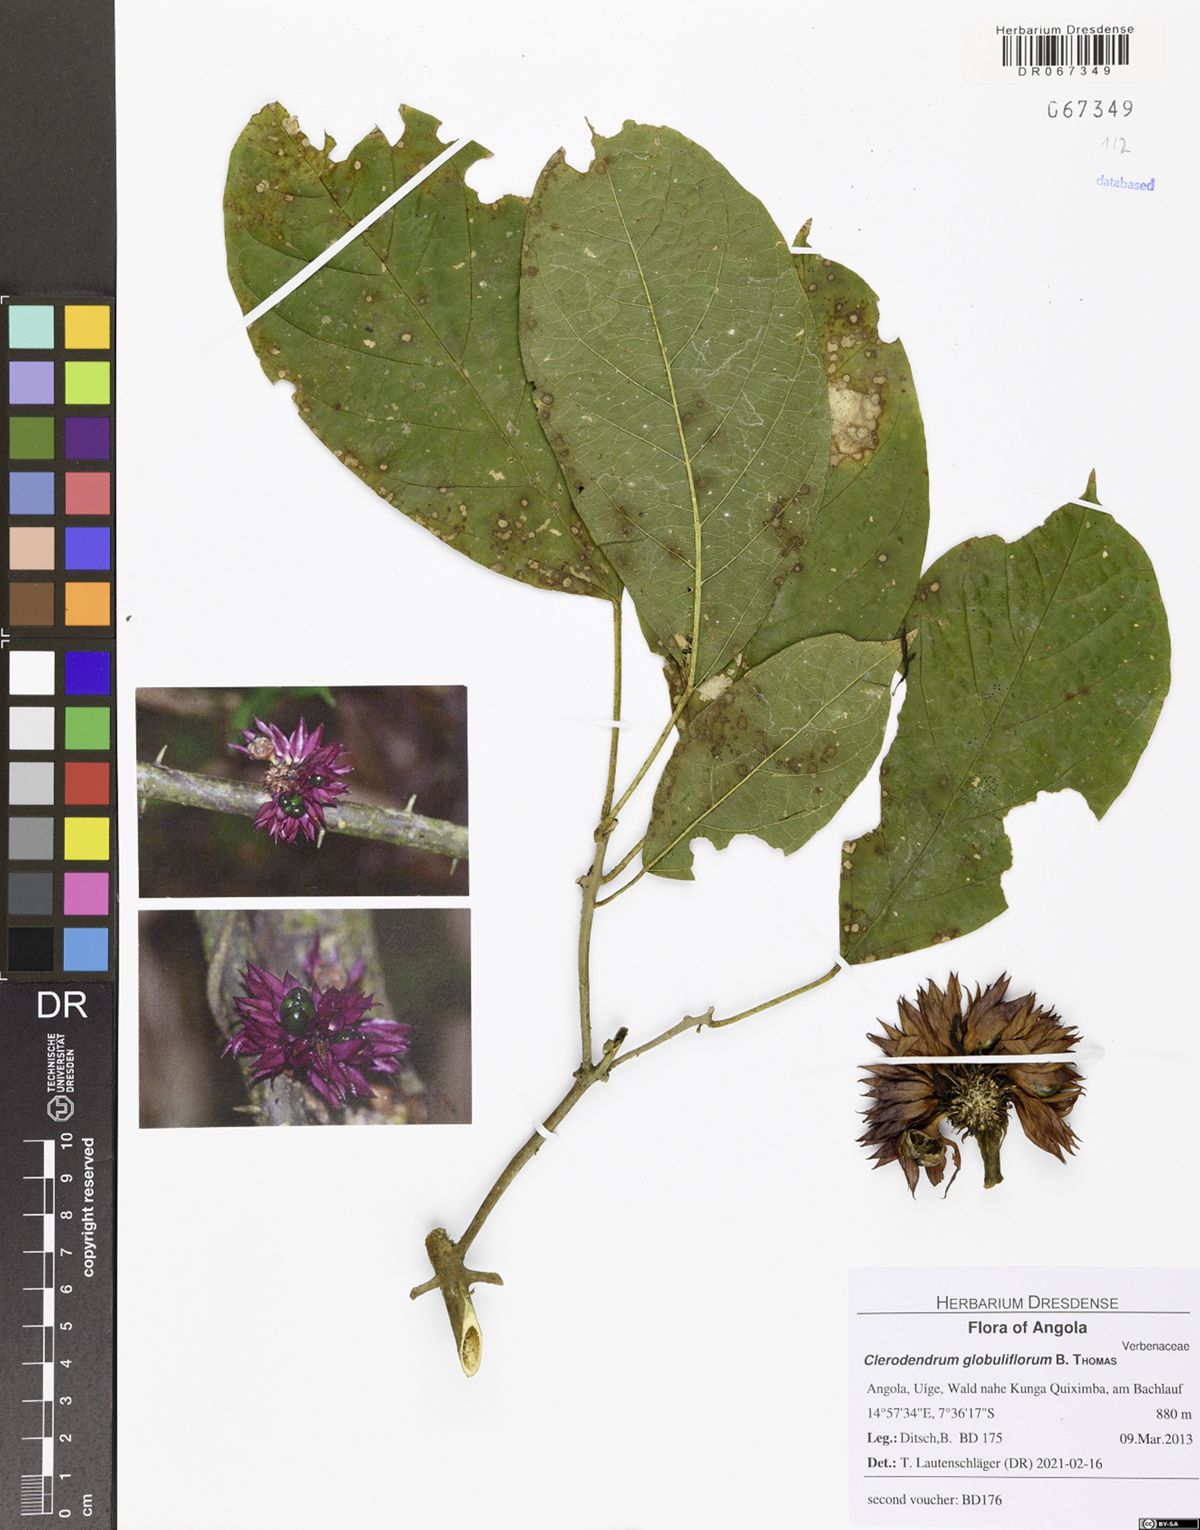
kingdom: Plantae
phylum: Tracheophyta
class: Magnoliopsida
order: Lamiales
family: Lamiaceae
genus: Clerodendrum
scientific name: Clerodendrum globuliflorum
